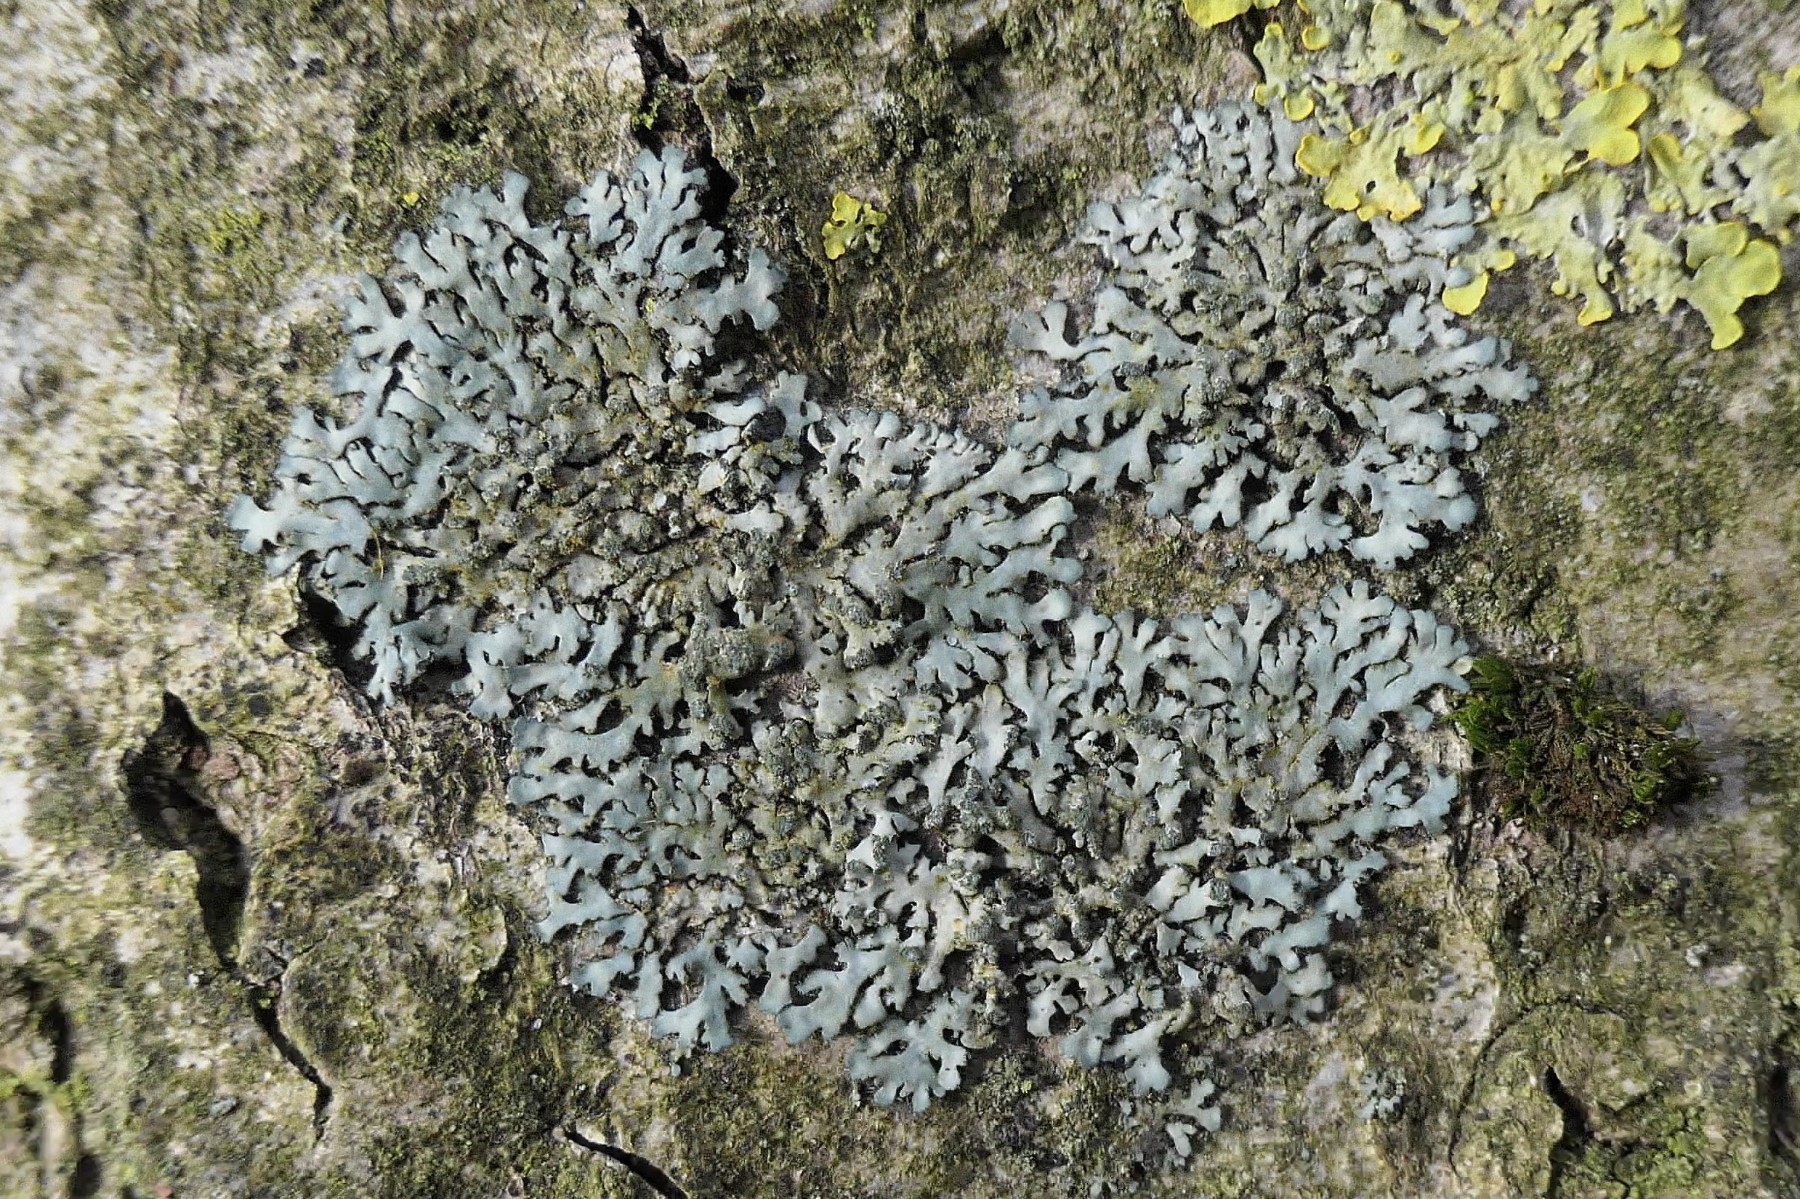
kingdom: Fungi
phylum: Ascomycota
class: Lecanoromycetes
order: Caliciales
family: Physciaceae
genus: Phaeophyscia
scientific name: Phaeophyscia orbicularis
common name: grågrøn rosetlav
